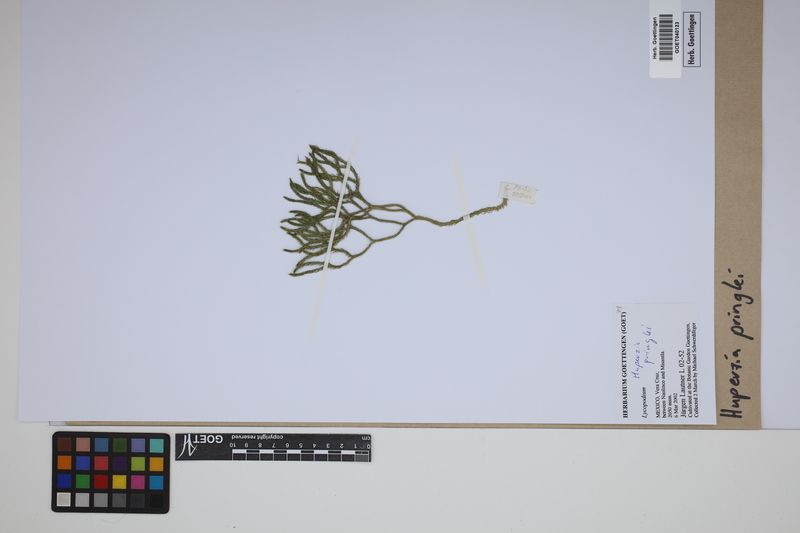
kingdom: Plantae
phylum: Tracheophyta
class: Lycopodiopsida
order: Lycopodiales
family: Lycopodiaceae
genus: Phlegmariurus
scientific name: Phlegmariurus pringlei
